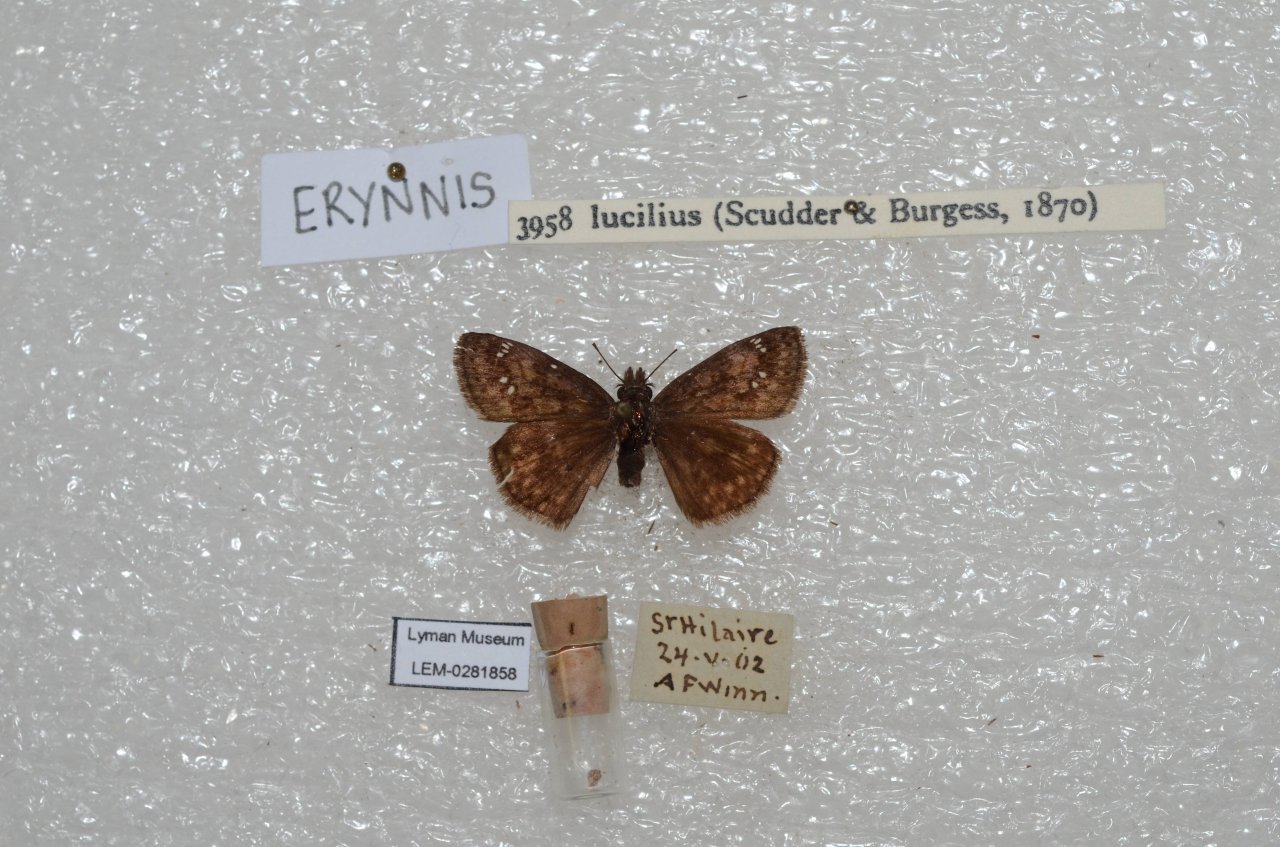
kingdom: Animalia
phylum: Arthropoda
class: Insecta
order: Lepidoptera
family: Hesperiidae
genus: Gesta
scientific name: Gesta
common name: Columbine Duskywing
